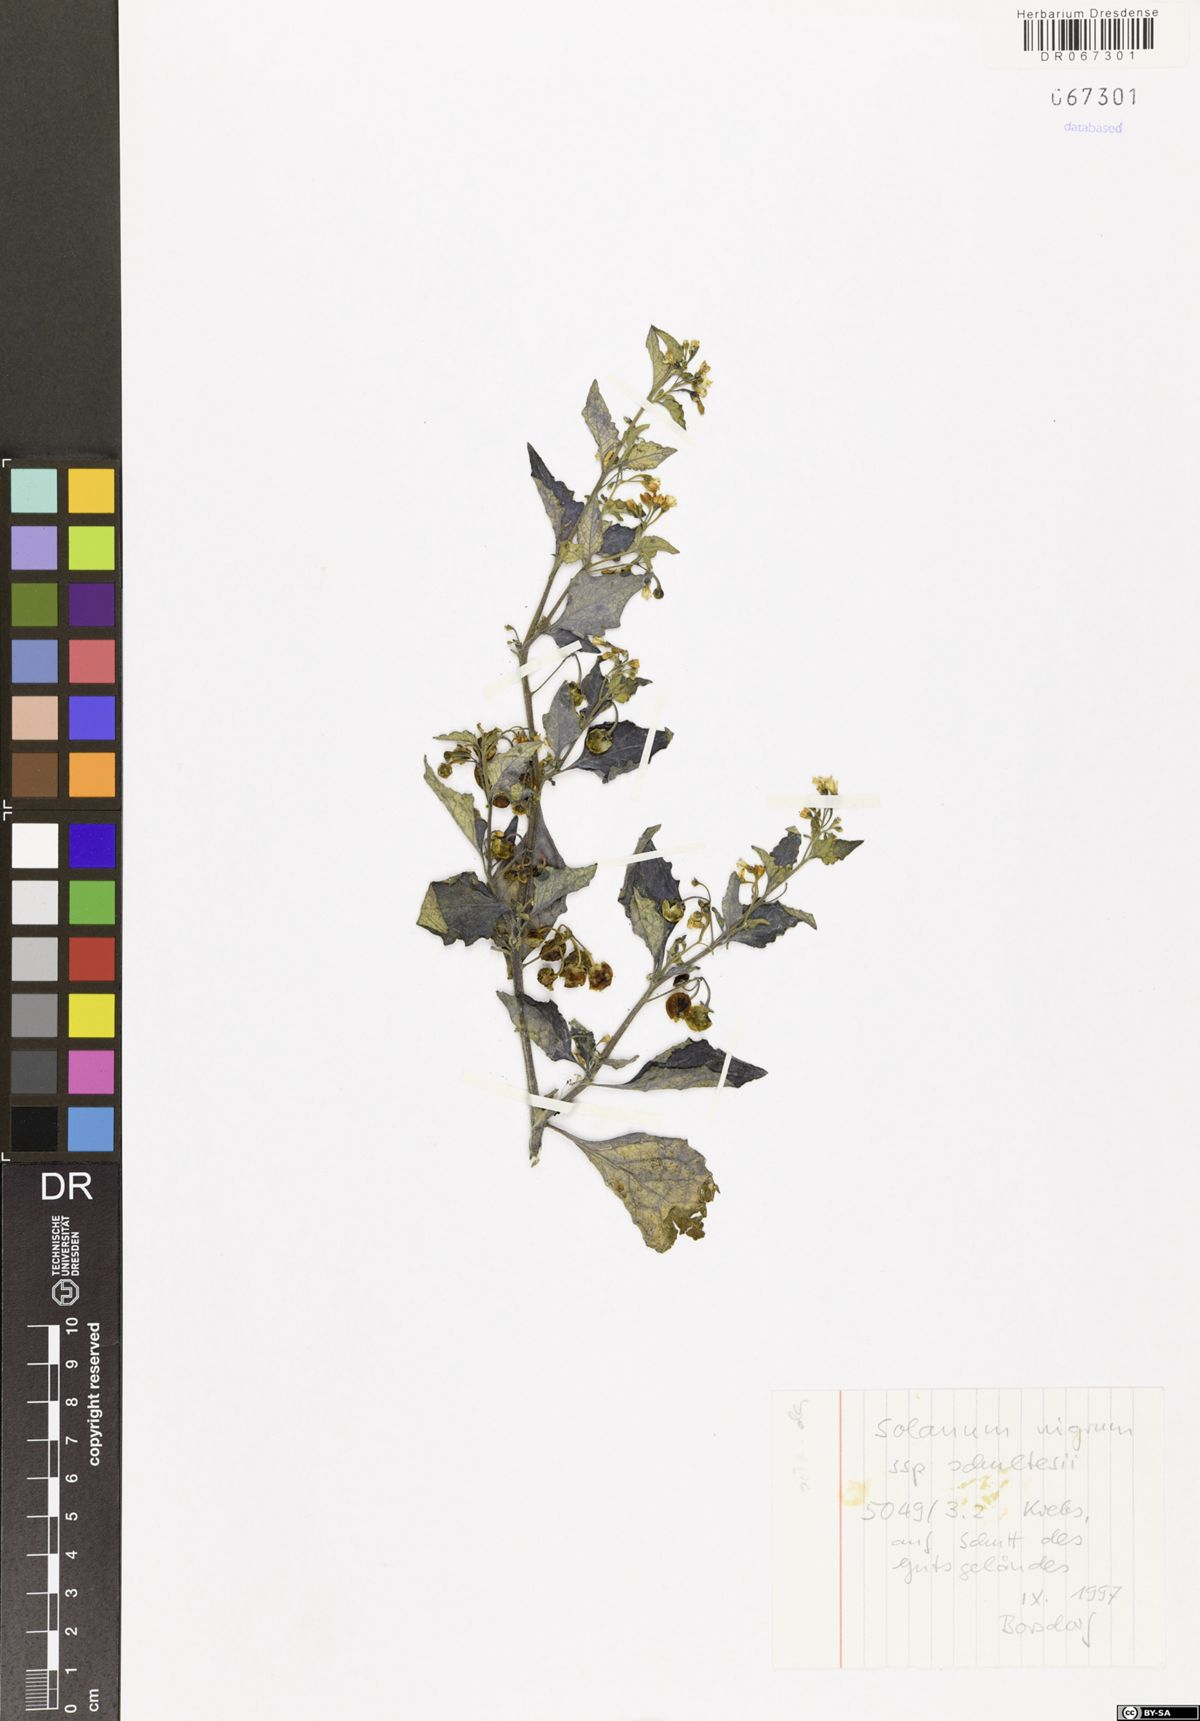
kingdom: Plantae
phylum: Tracheophyta
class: Magnoliopsida
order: Solanales
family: Solanaceae
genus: Solanum
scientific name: Solanum decipiens
